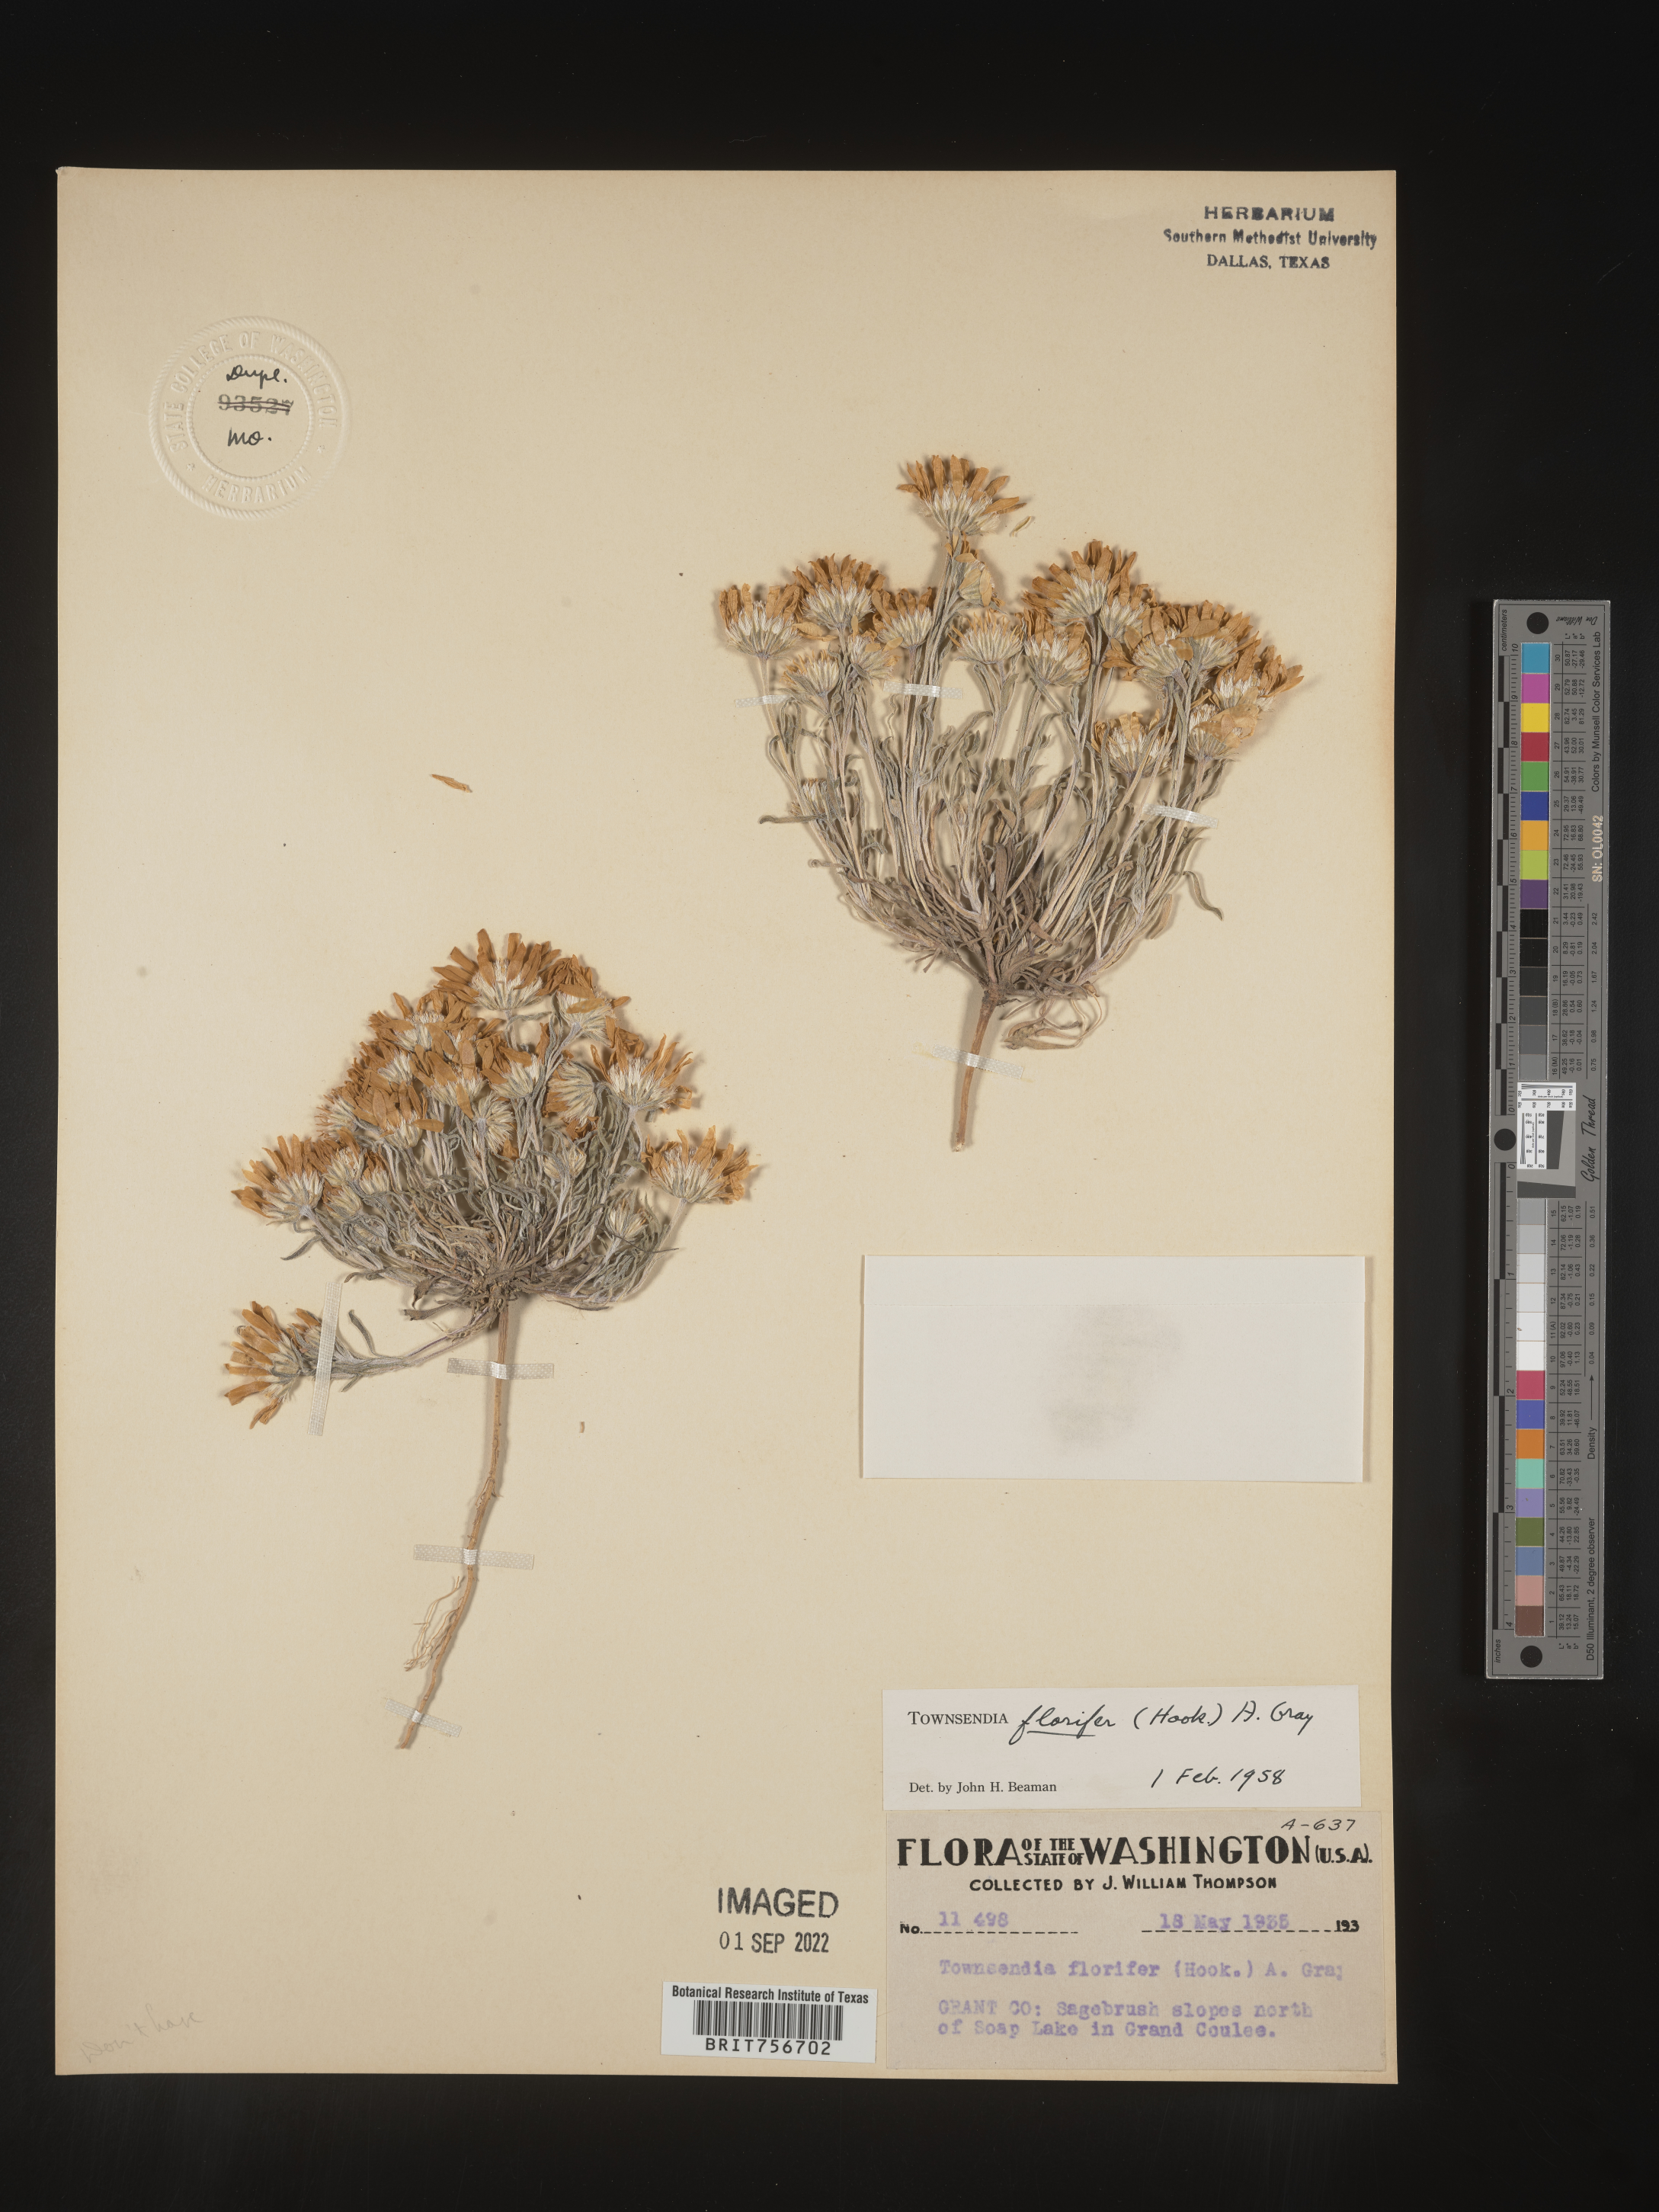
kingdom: Plantae
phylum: Tracheophyta
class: Magnoliopsida
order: Asterales
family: Asteraceae
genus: Townsendia
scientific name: Townsendia florifer
